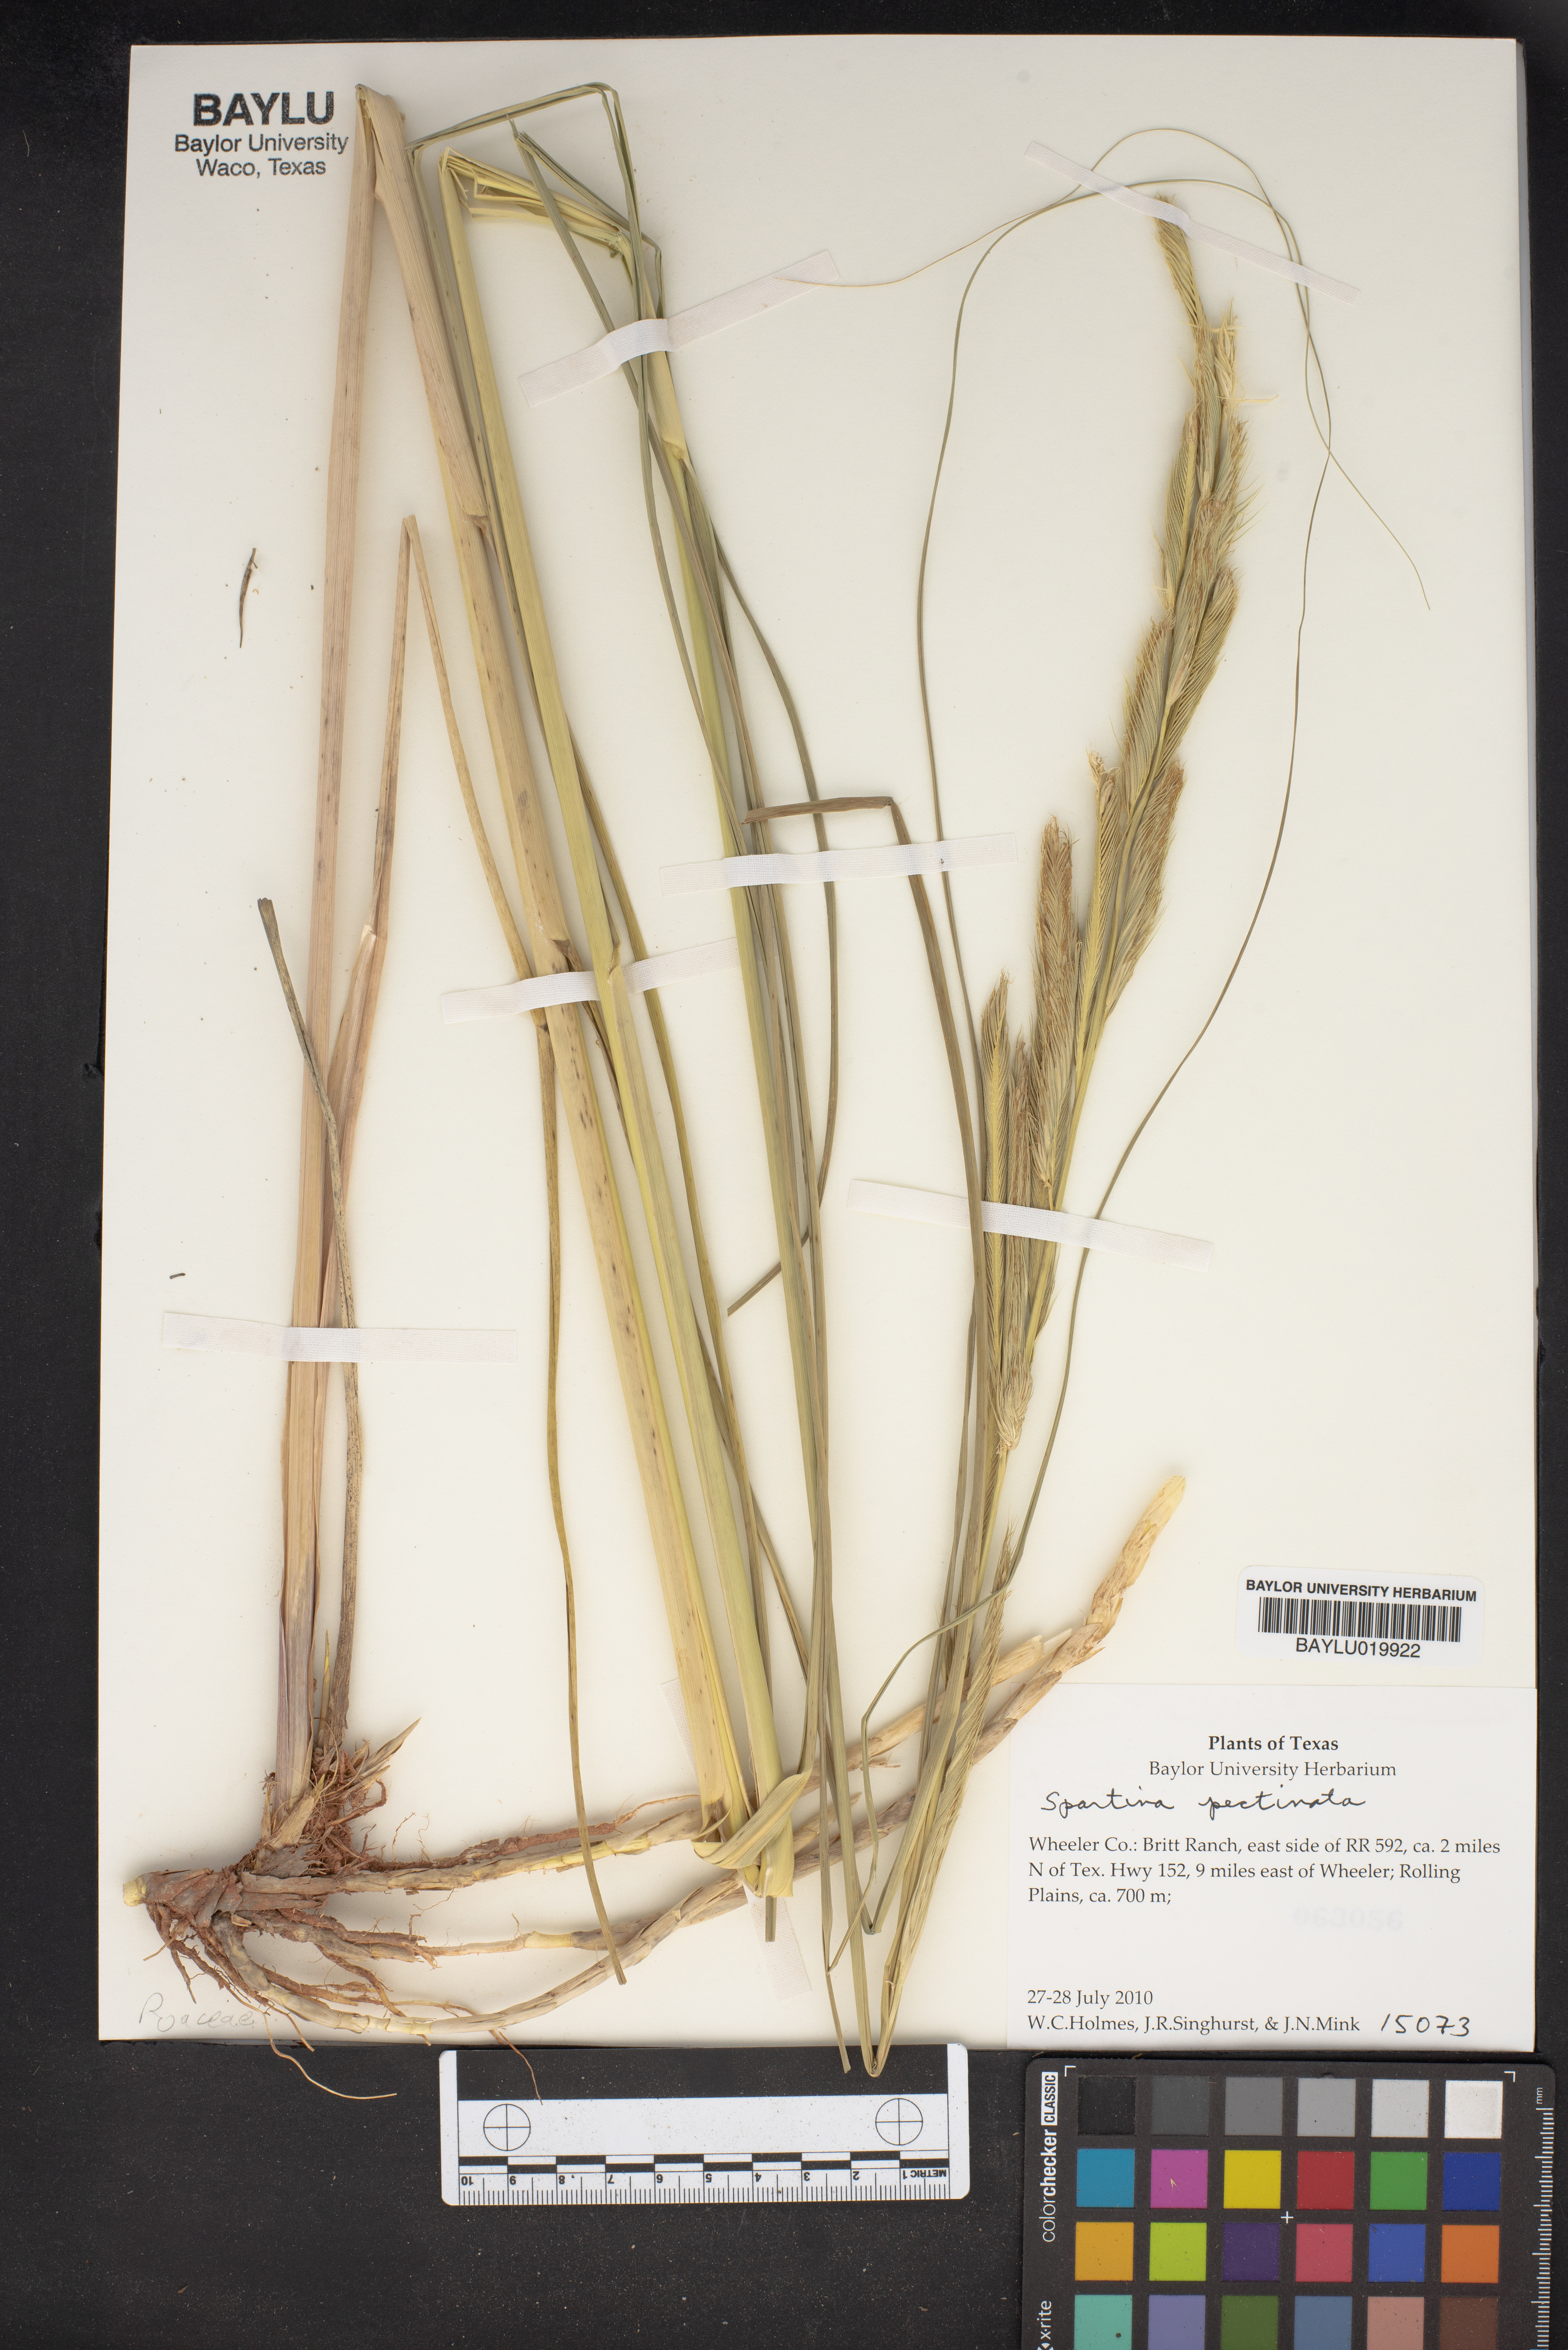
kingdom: Plantae
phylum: Tracheophyta
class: Liliopsida
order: Poales
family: Poaceae
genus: Sporobolus
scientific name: Sporobolus michauxianus
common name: Freshwater cordgrass
